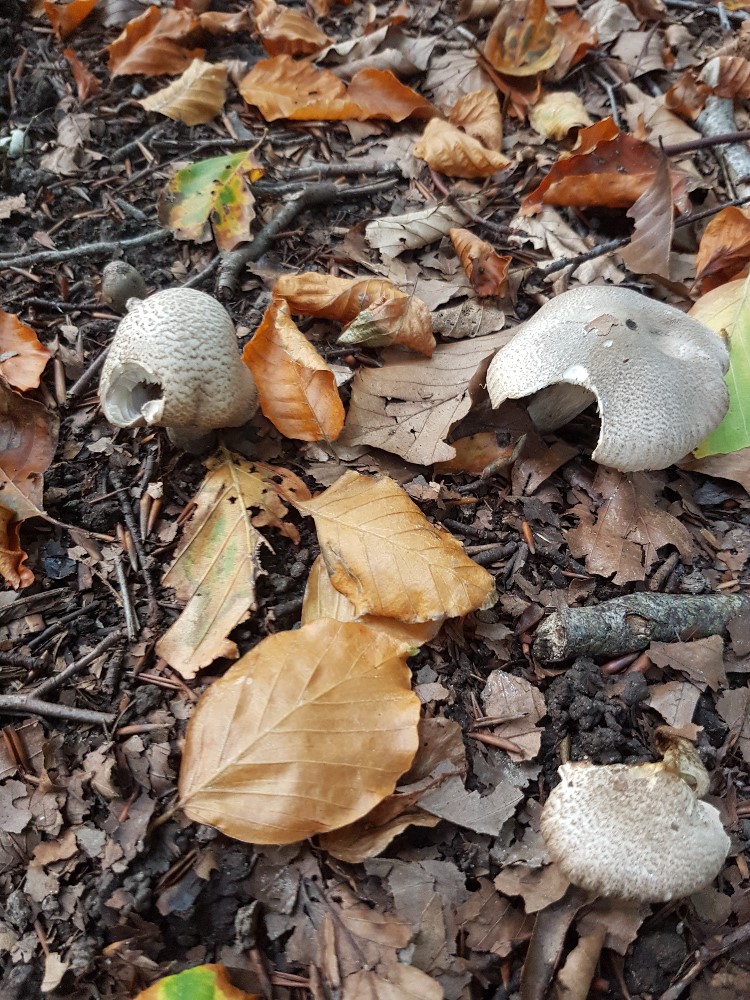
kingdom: Fungi
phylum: Basidiomycota
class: Agaricomycetes
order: Agaricales
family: Tricholomataceae
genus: Tricholoma
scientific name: Tricholoma scalpturatum
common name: gulplettet ridderhat
